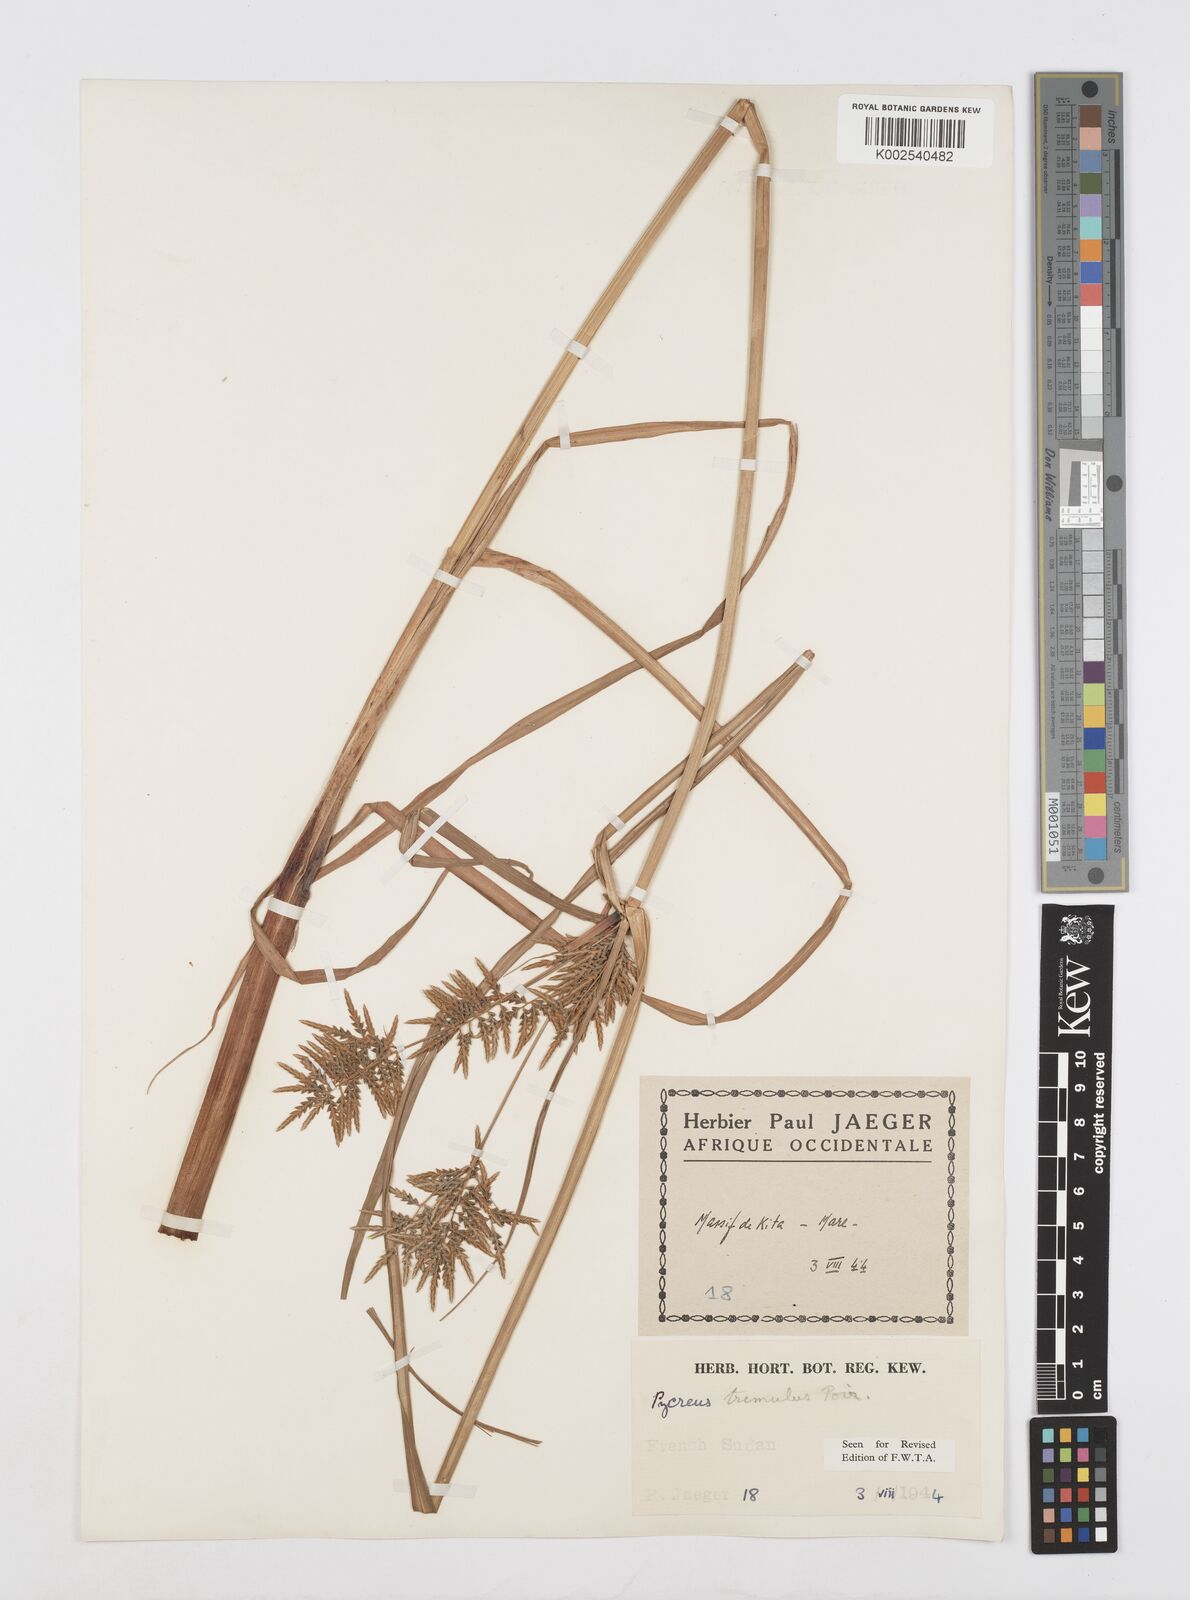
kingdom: Plantae
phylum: Tracheophyta
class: Liliopsida
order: Poales
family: Cyperaceae
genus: Cyperus
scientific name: Cyperus macrostachyos
